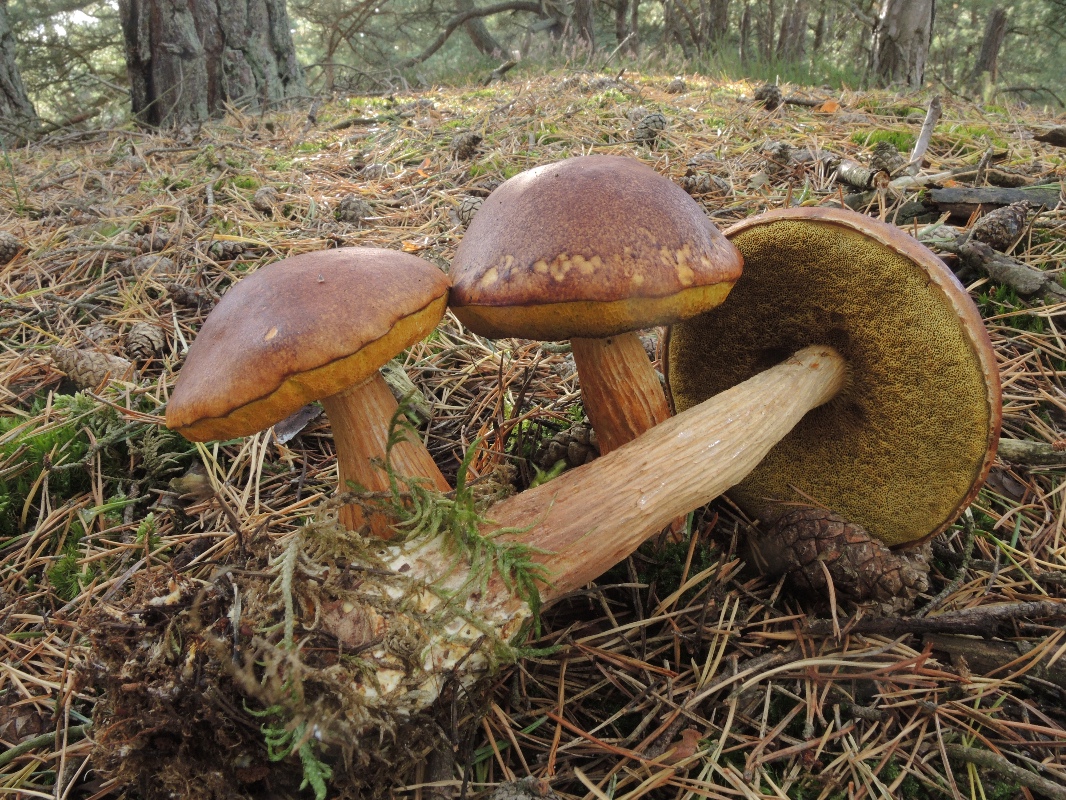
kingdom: Fungi
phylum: Basidiomycota
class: Agaricomycetes
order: Boletales
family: Boletaceae
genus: Aureoboletus
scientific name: Aureoboletus projectellus
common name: ribbestokket rørhat
